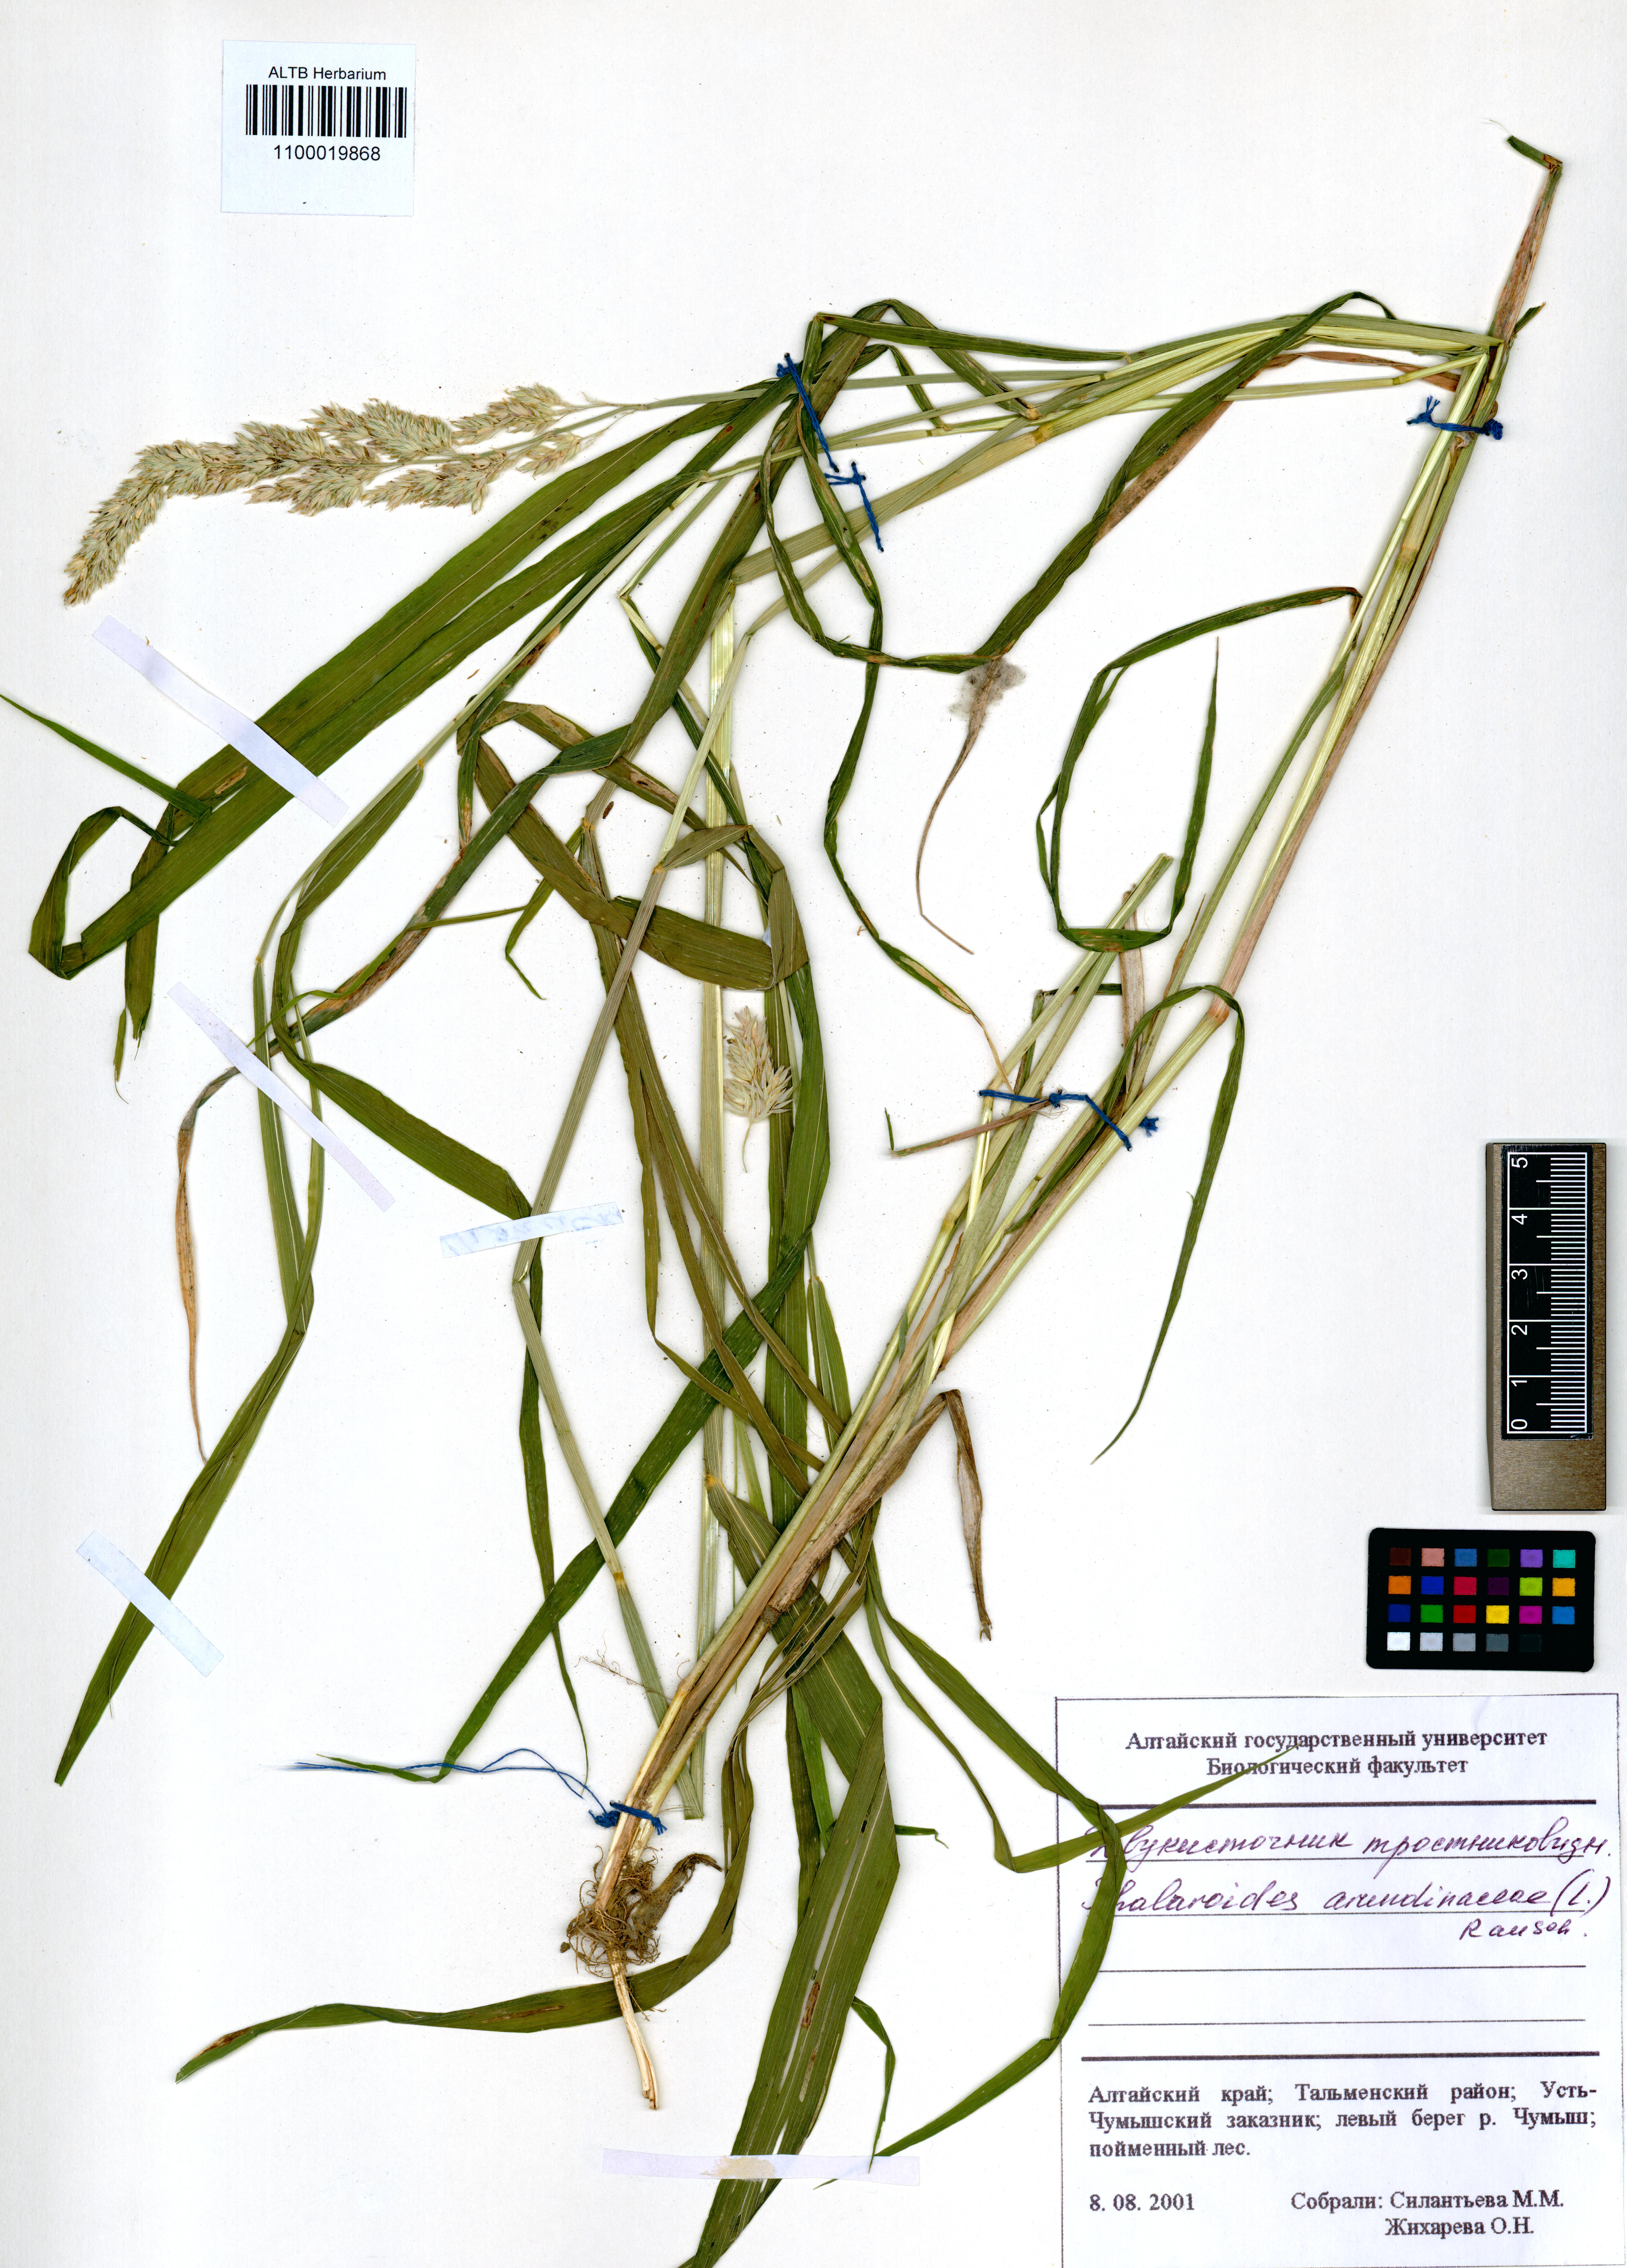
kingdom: Plantae
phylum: Tracheophyta
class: Liliopsida
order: Poales
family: Poaceae
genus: Phalaris
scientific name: Phalaris arundinacea
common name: Reed canary-grass
